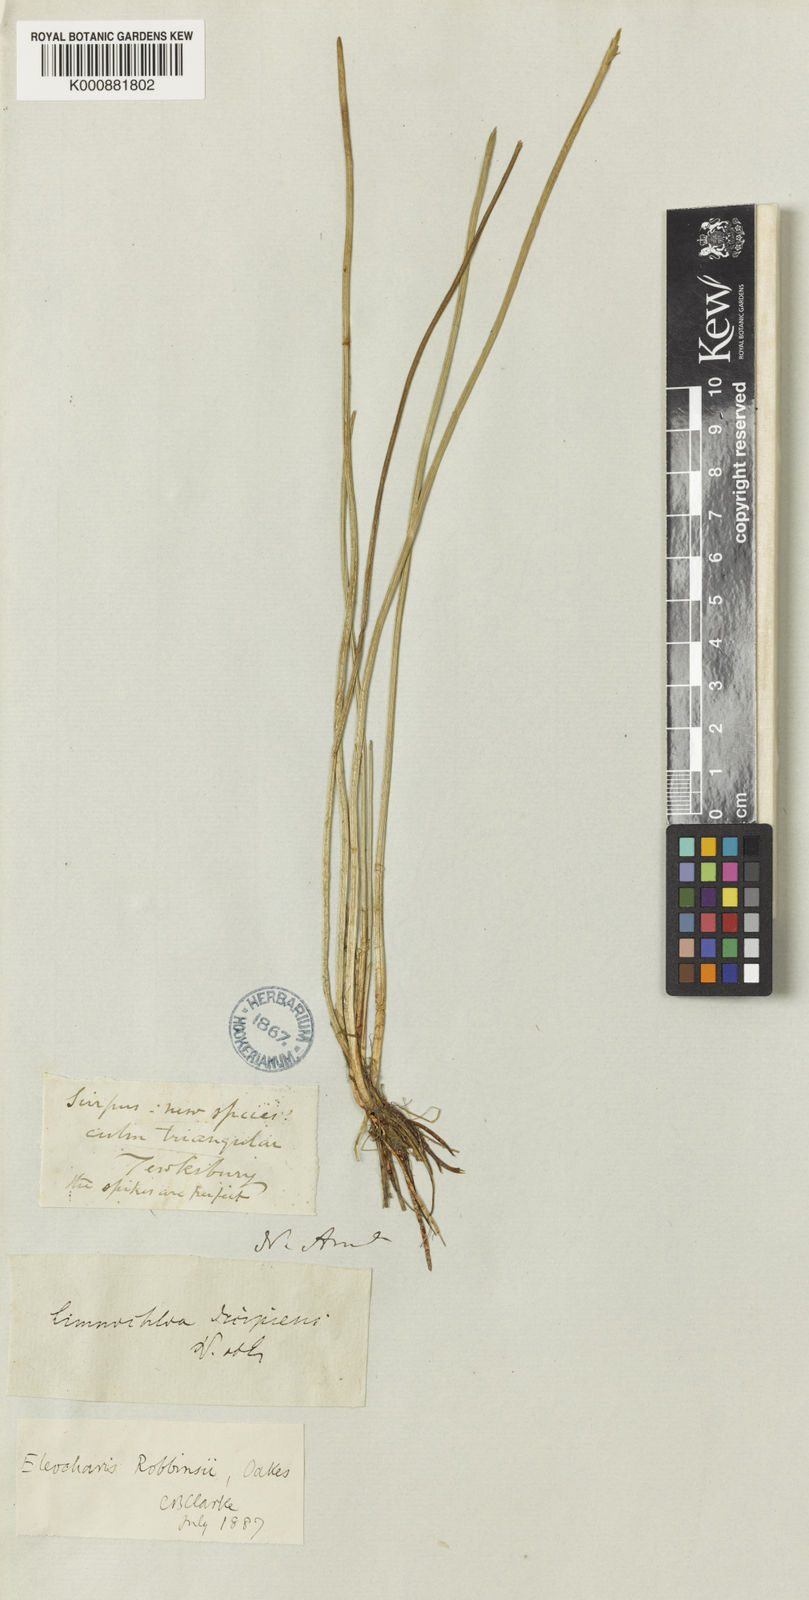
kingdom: Plantae
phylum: Tracheophyta
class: Liliopsida
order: Poales
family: Cyperaceae
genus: Eleocharis
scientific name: Eleocharis robbinsii
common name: Robbins' spikerush
